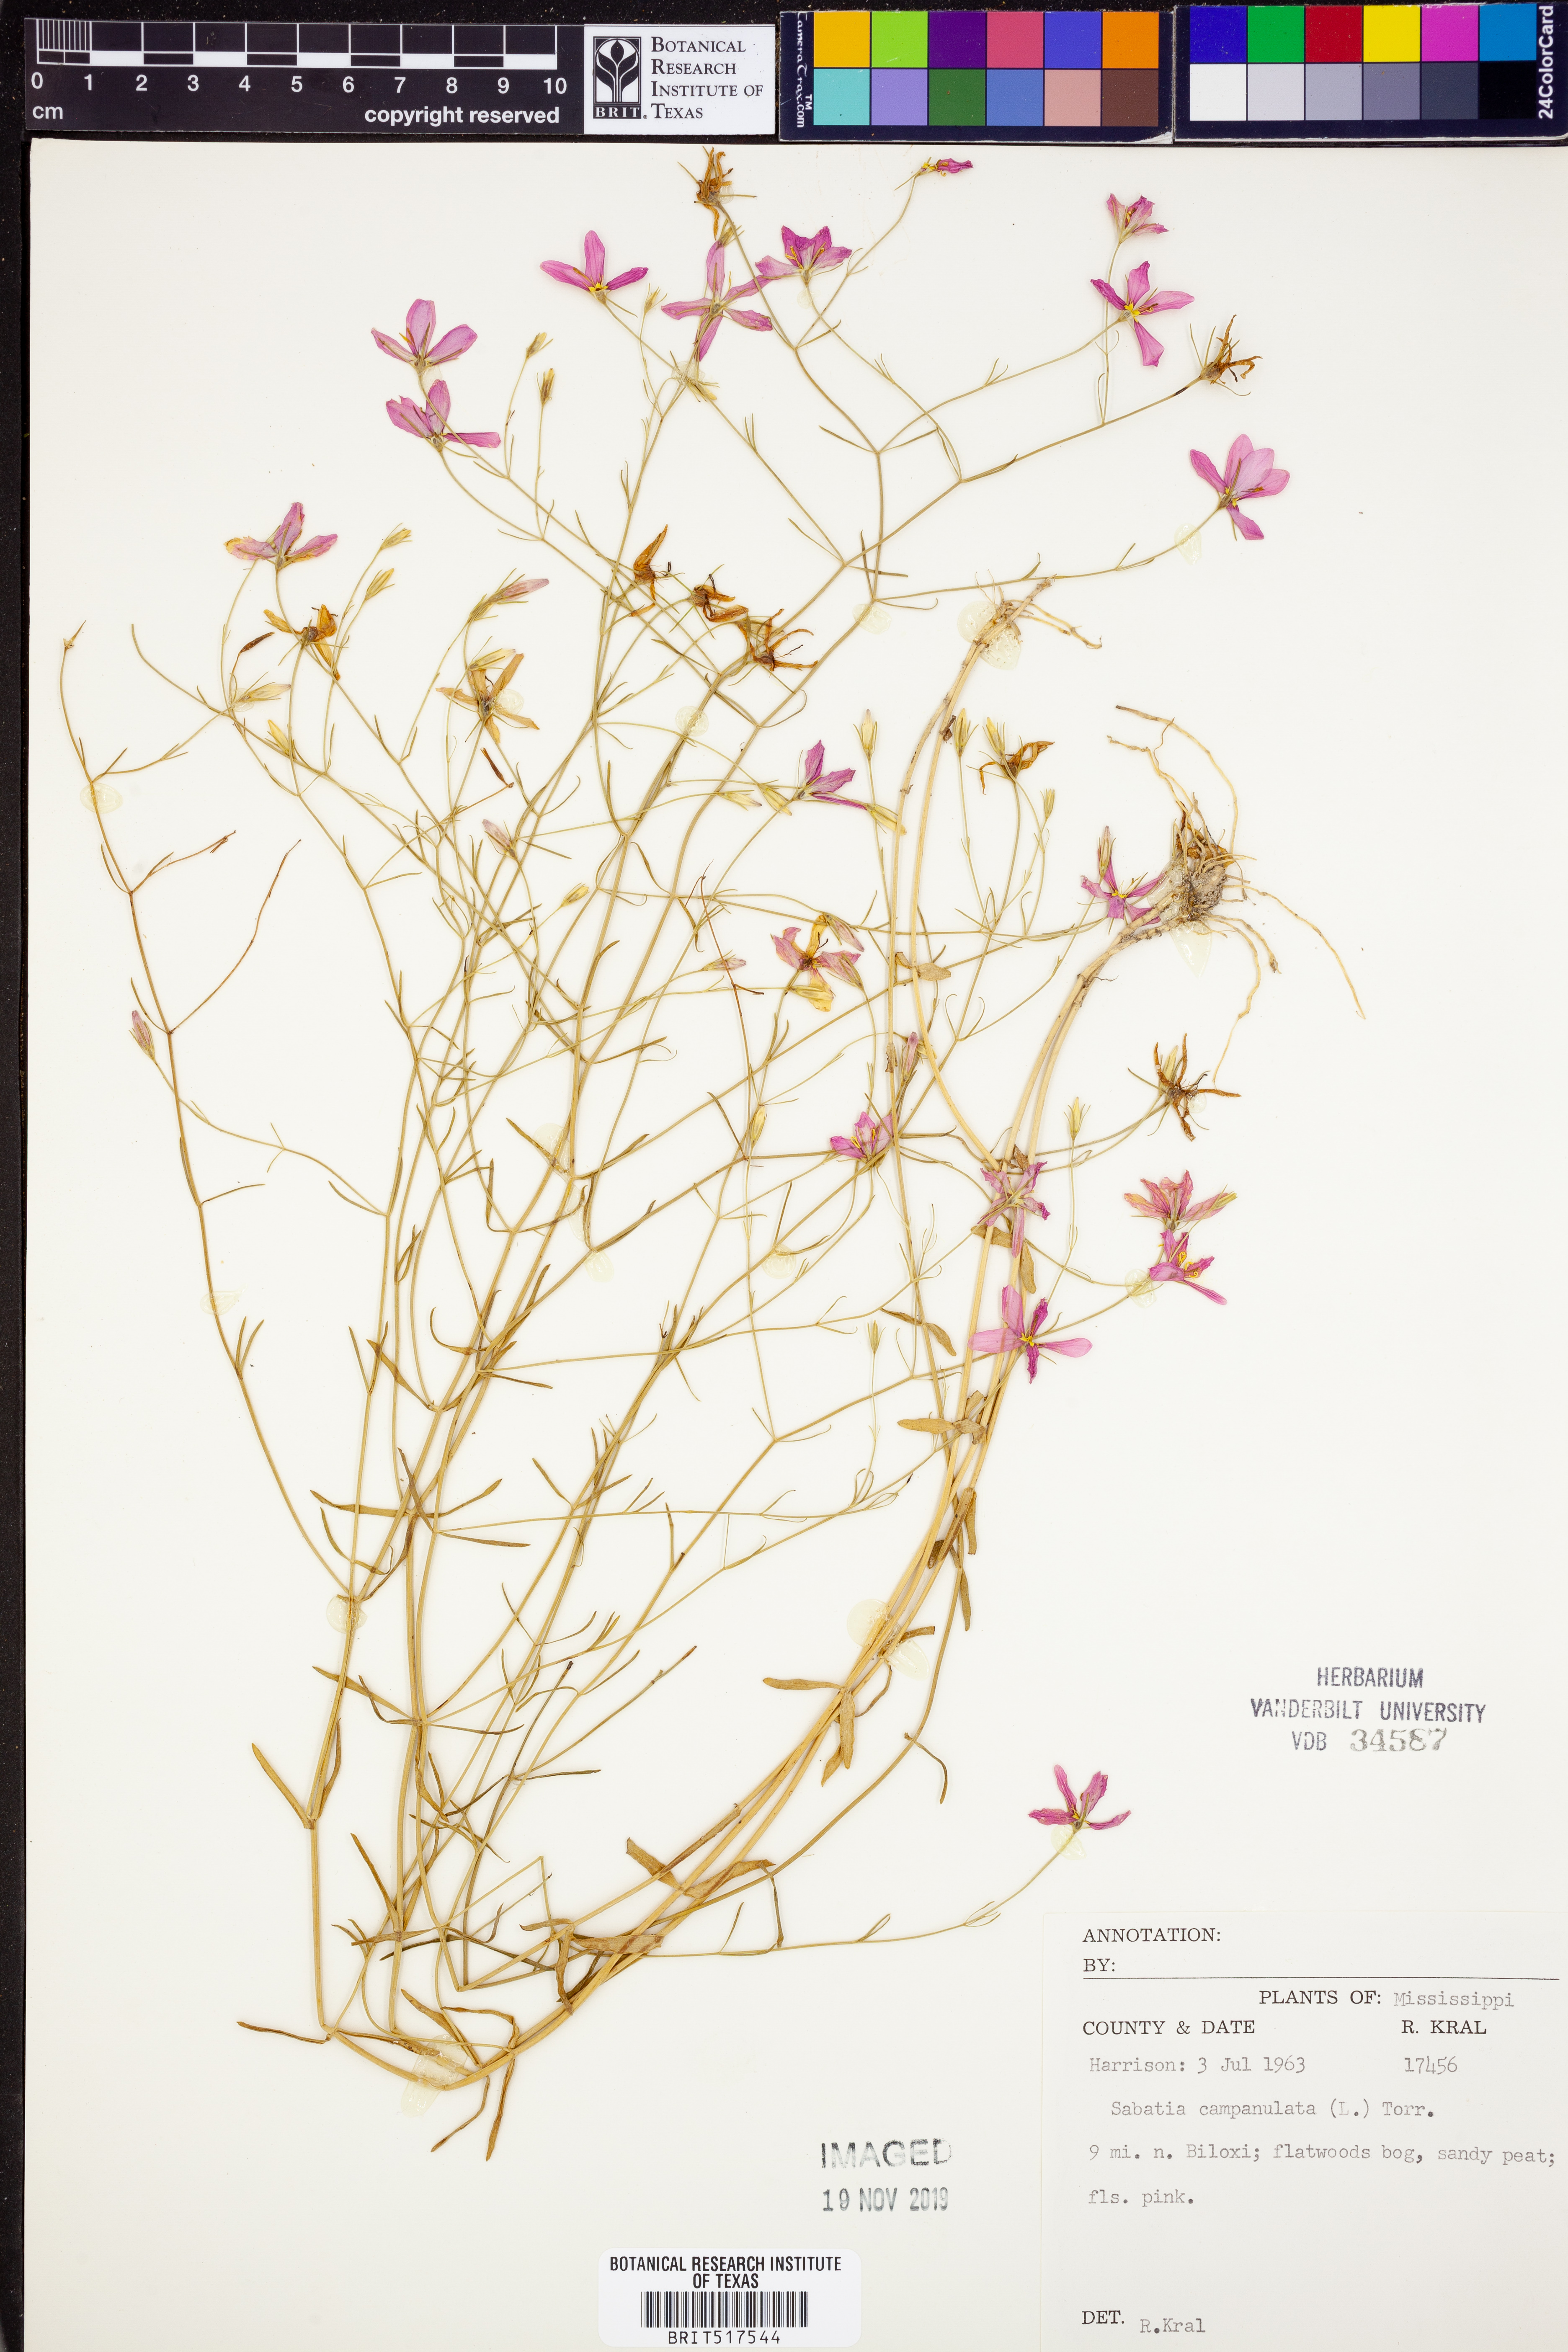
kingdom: Plantae
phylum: Tracheophyta
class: Magnoliopsida
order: Gentianales
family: Gentianaceae
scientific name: Gentianaceae
